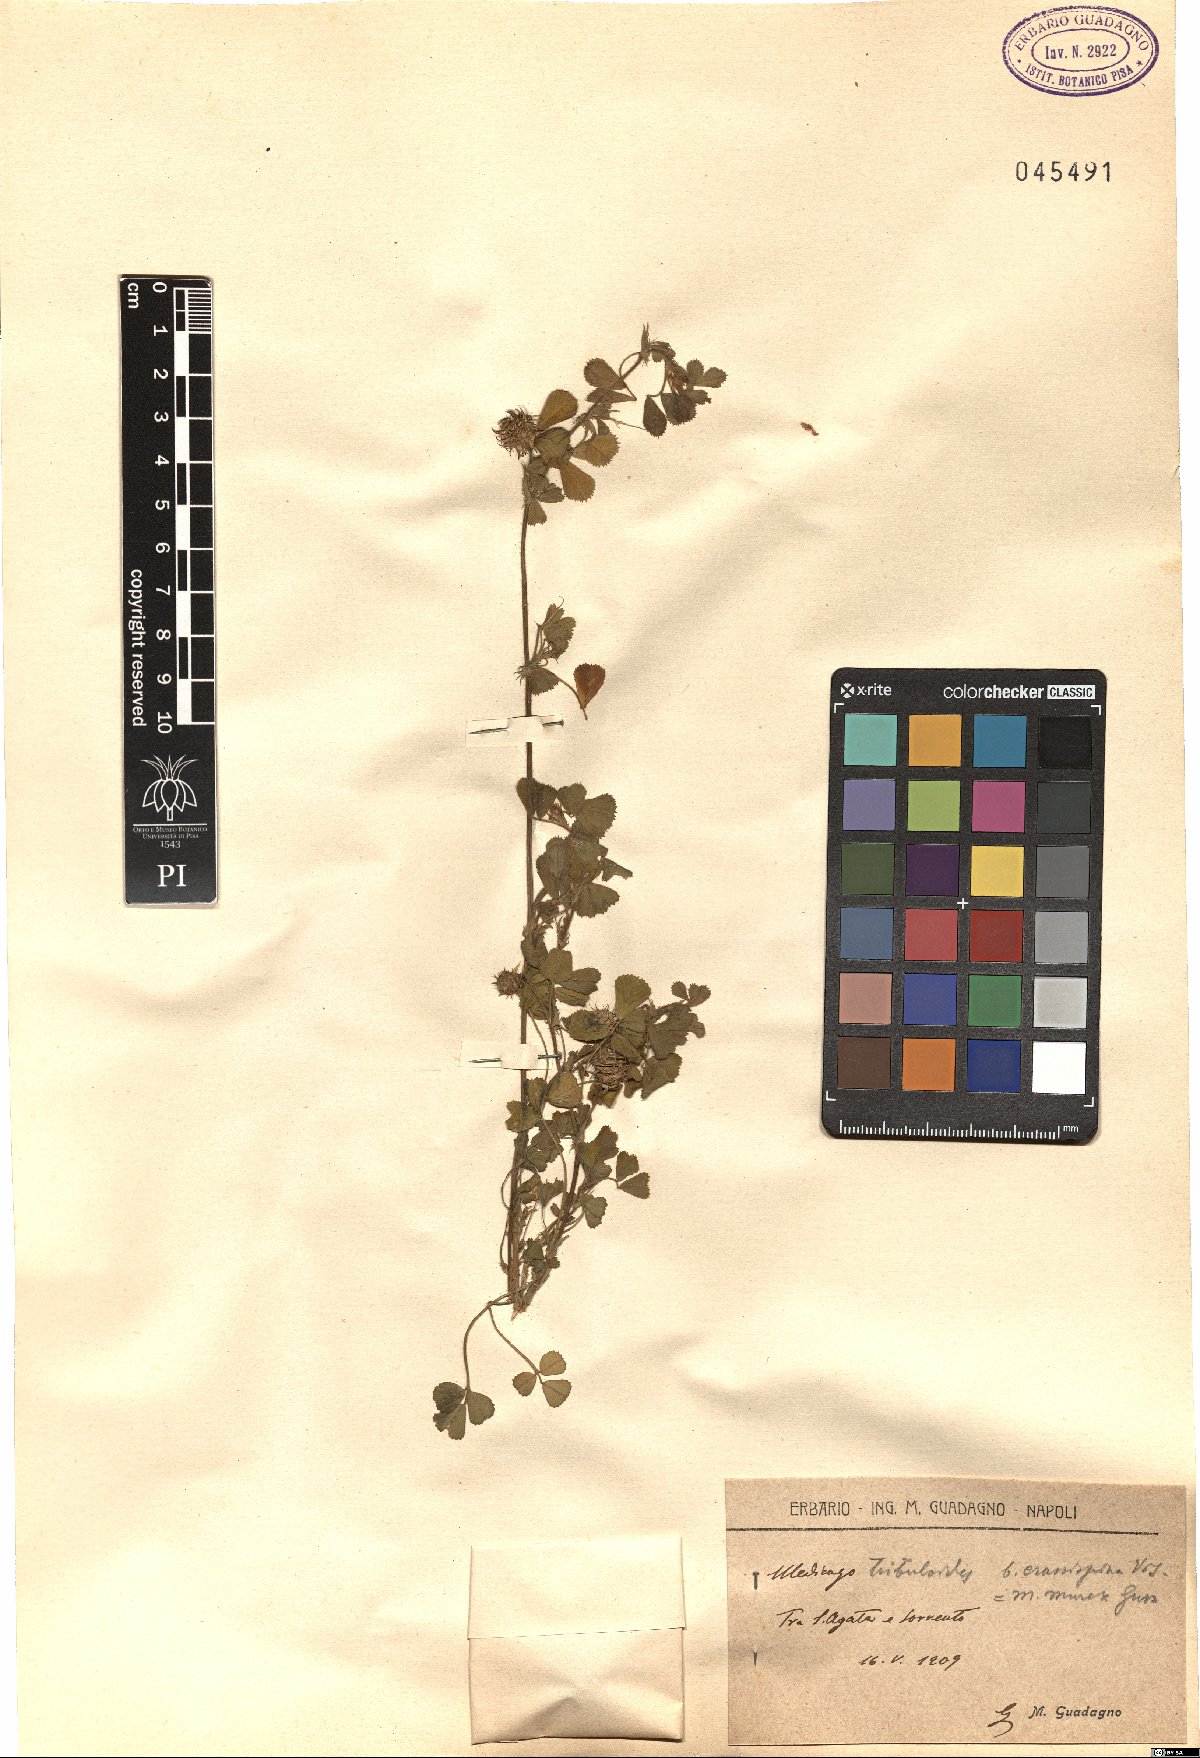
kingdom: Plantae
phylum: Tracheophyta
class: Magnoliopsida
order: Fabales
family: Fabaceae
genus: Medicago
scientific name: Medicago murex
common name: Murex
